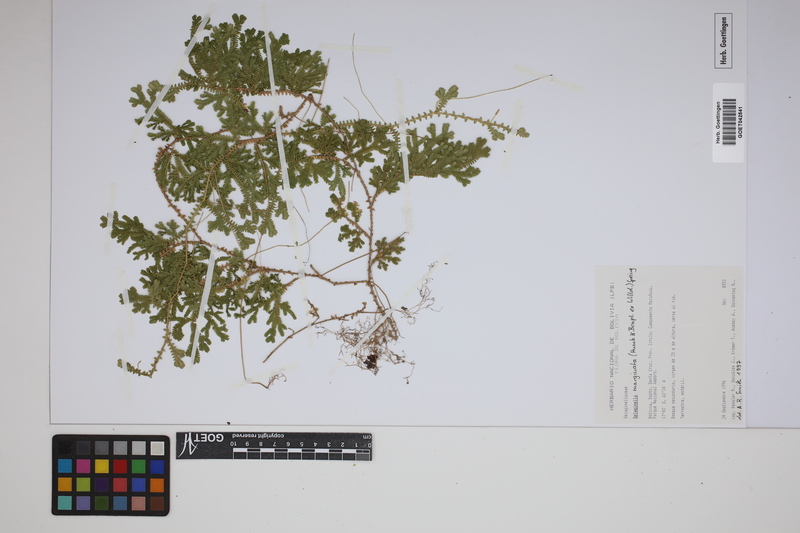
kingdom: Plantae
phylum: Tracheophyta
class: Lycopodiopsida
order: Selaginellales
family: Selaginellaceae
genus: Selaginella
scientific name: Selaginella marginata
